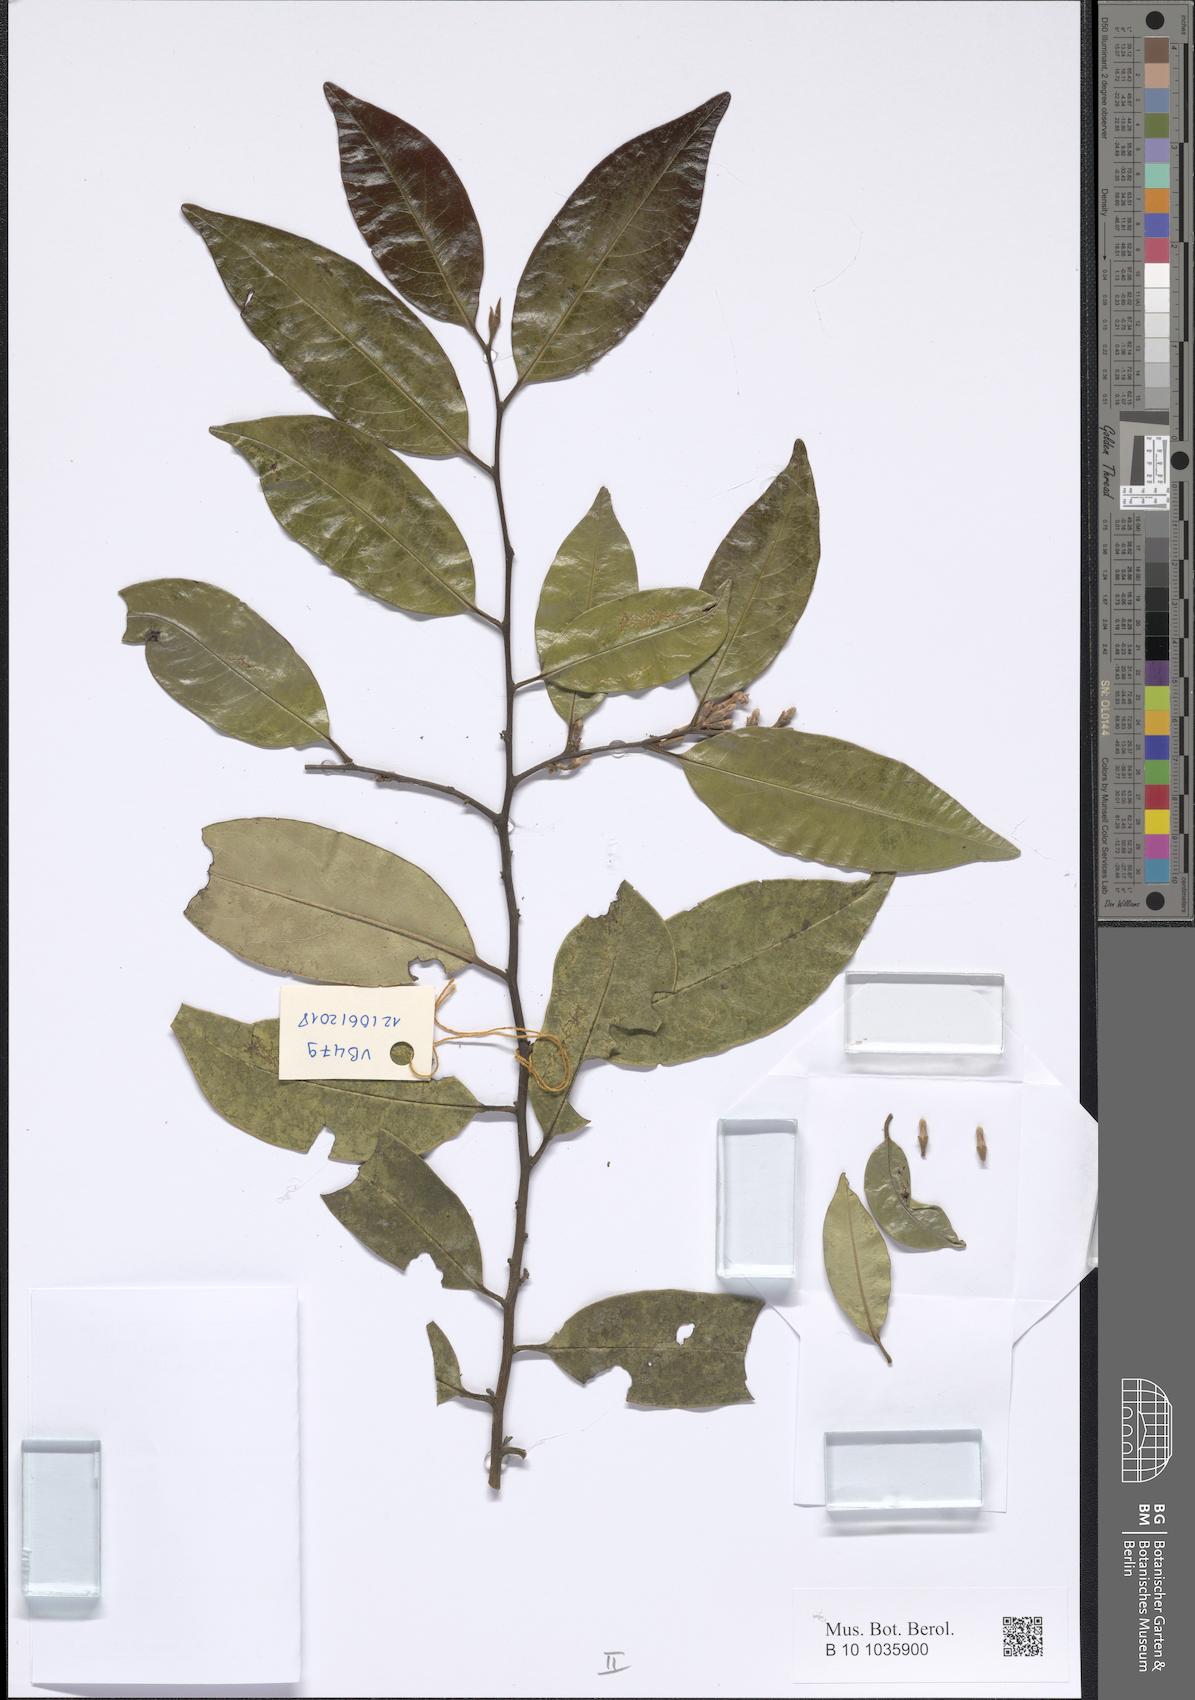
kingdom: Plantae
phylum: Tracheophyta
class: Magnoliopsida
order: Ericales
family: Ebenaceae
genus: Diospyros
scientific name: Diospyros
